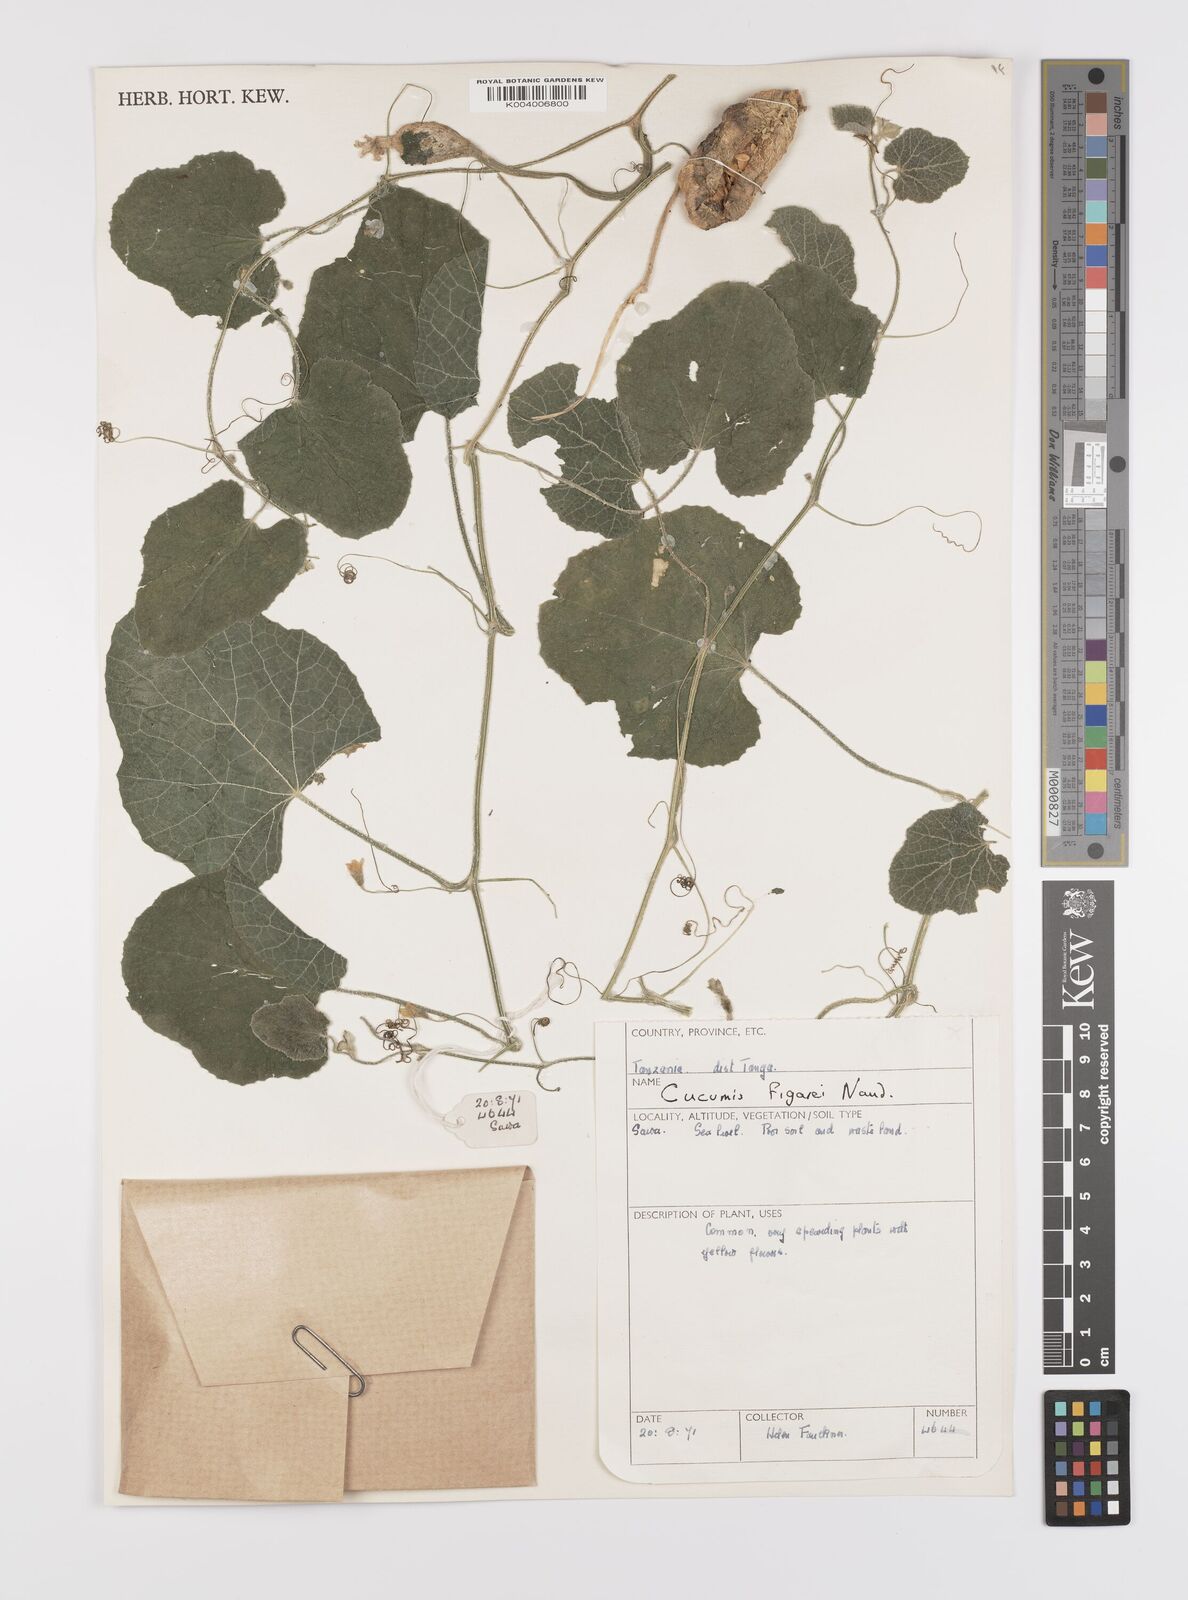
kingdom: Plantae
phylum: Tracheophyta
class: Magnoliopsida
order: Cucurbitales
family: Cucurbitaceae
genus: Cucumis
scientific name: Cucumis
